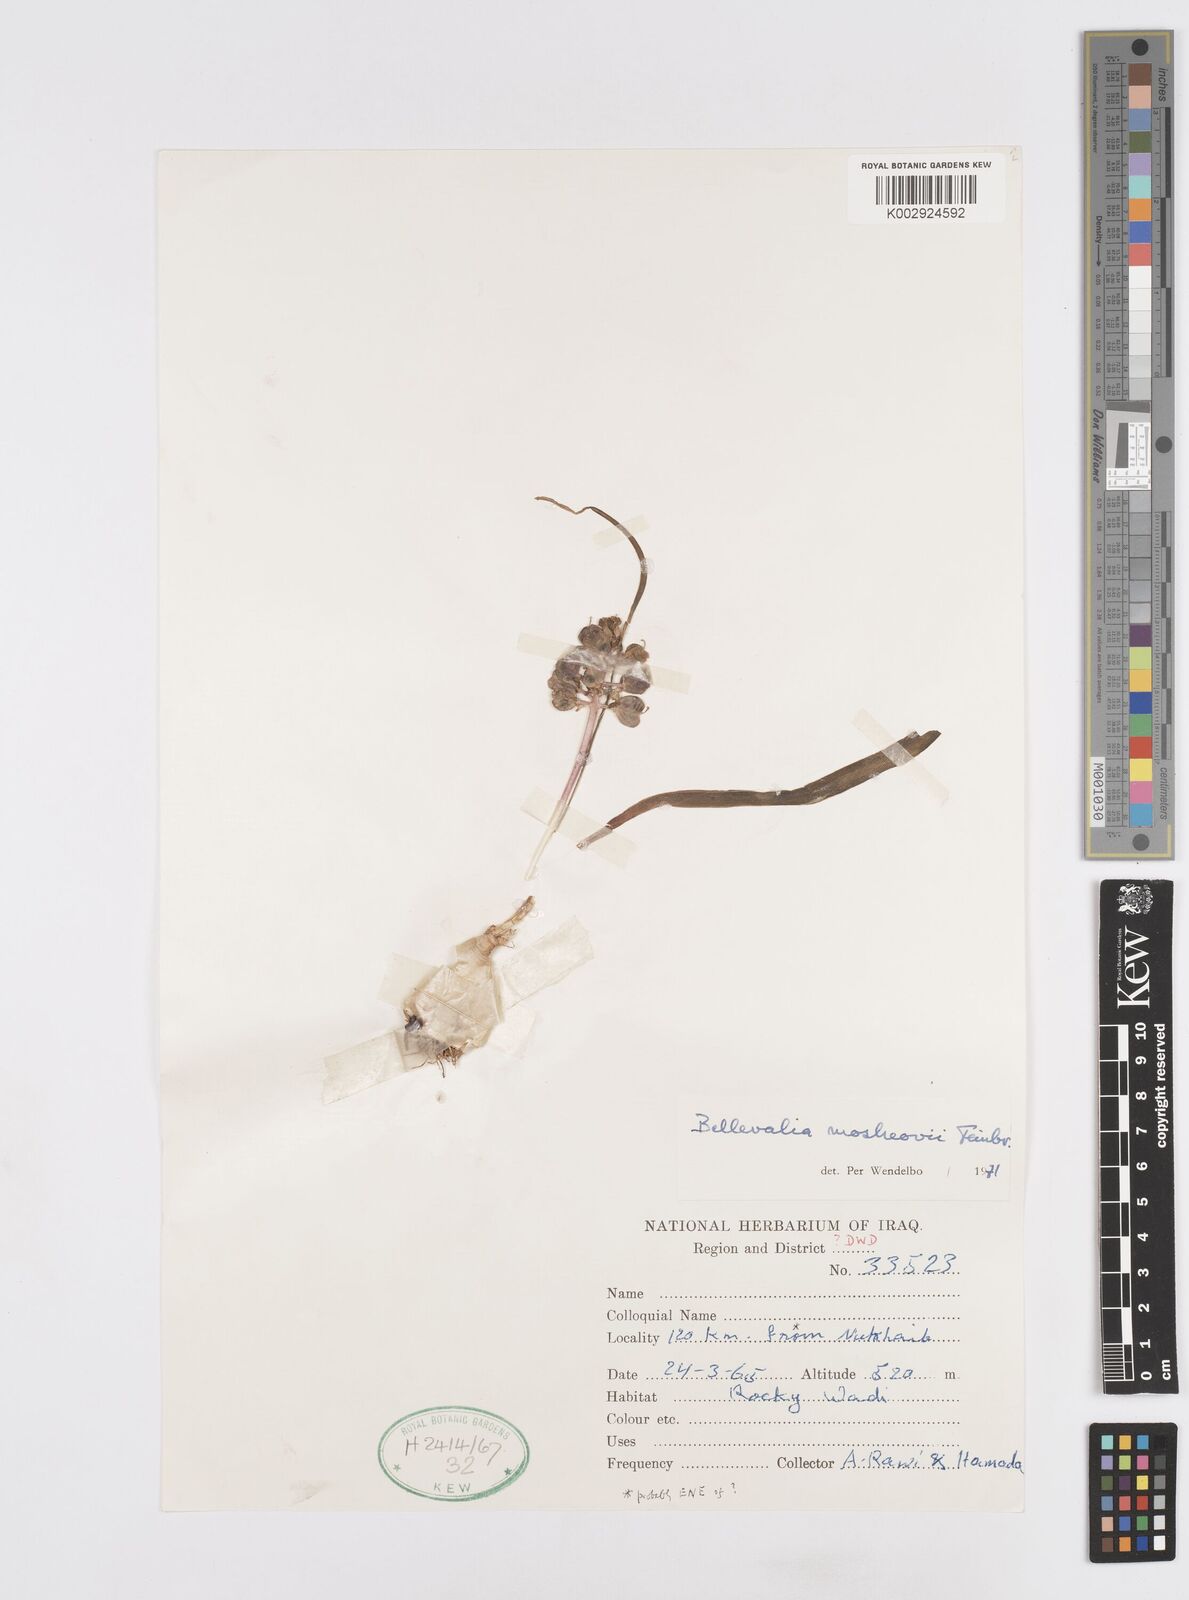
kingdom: Plantae
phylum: Tracheophyta
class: Liliopsida
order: Asparagales
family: Asparagaceae
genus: Bellevalia
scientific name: Bellevalia mosheovii
